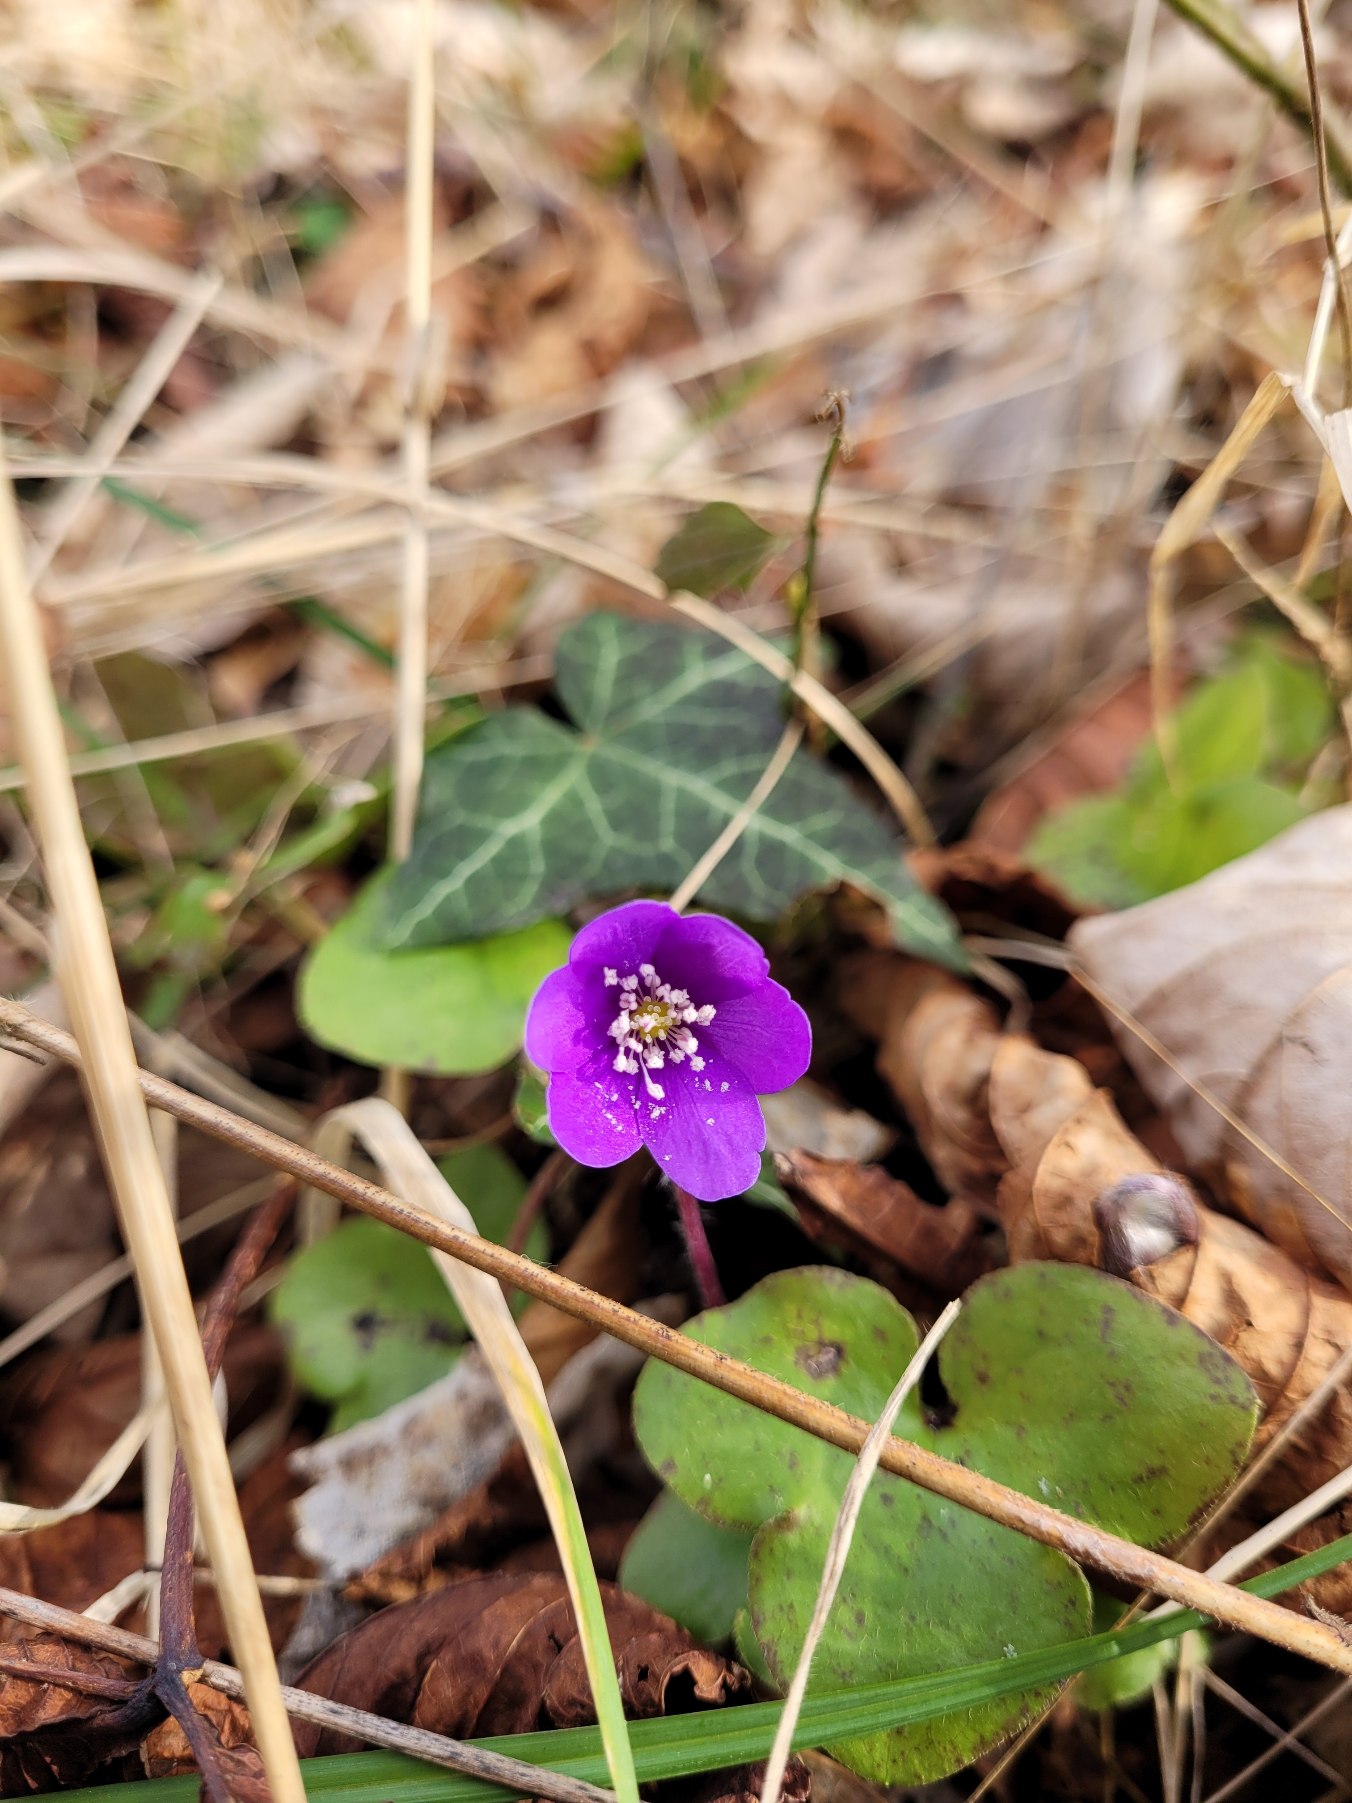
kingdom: Plantae
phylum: Tracheophyta
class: Magnoliopsida
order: Ranunculales
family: Ranunculaceae
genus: Hepatica
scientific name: Hepatica nobilis
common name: Blå anemone
